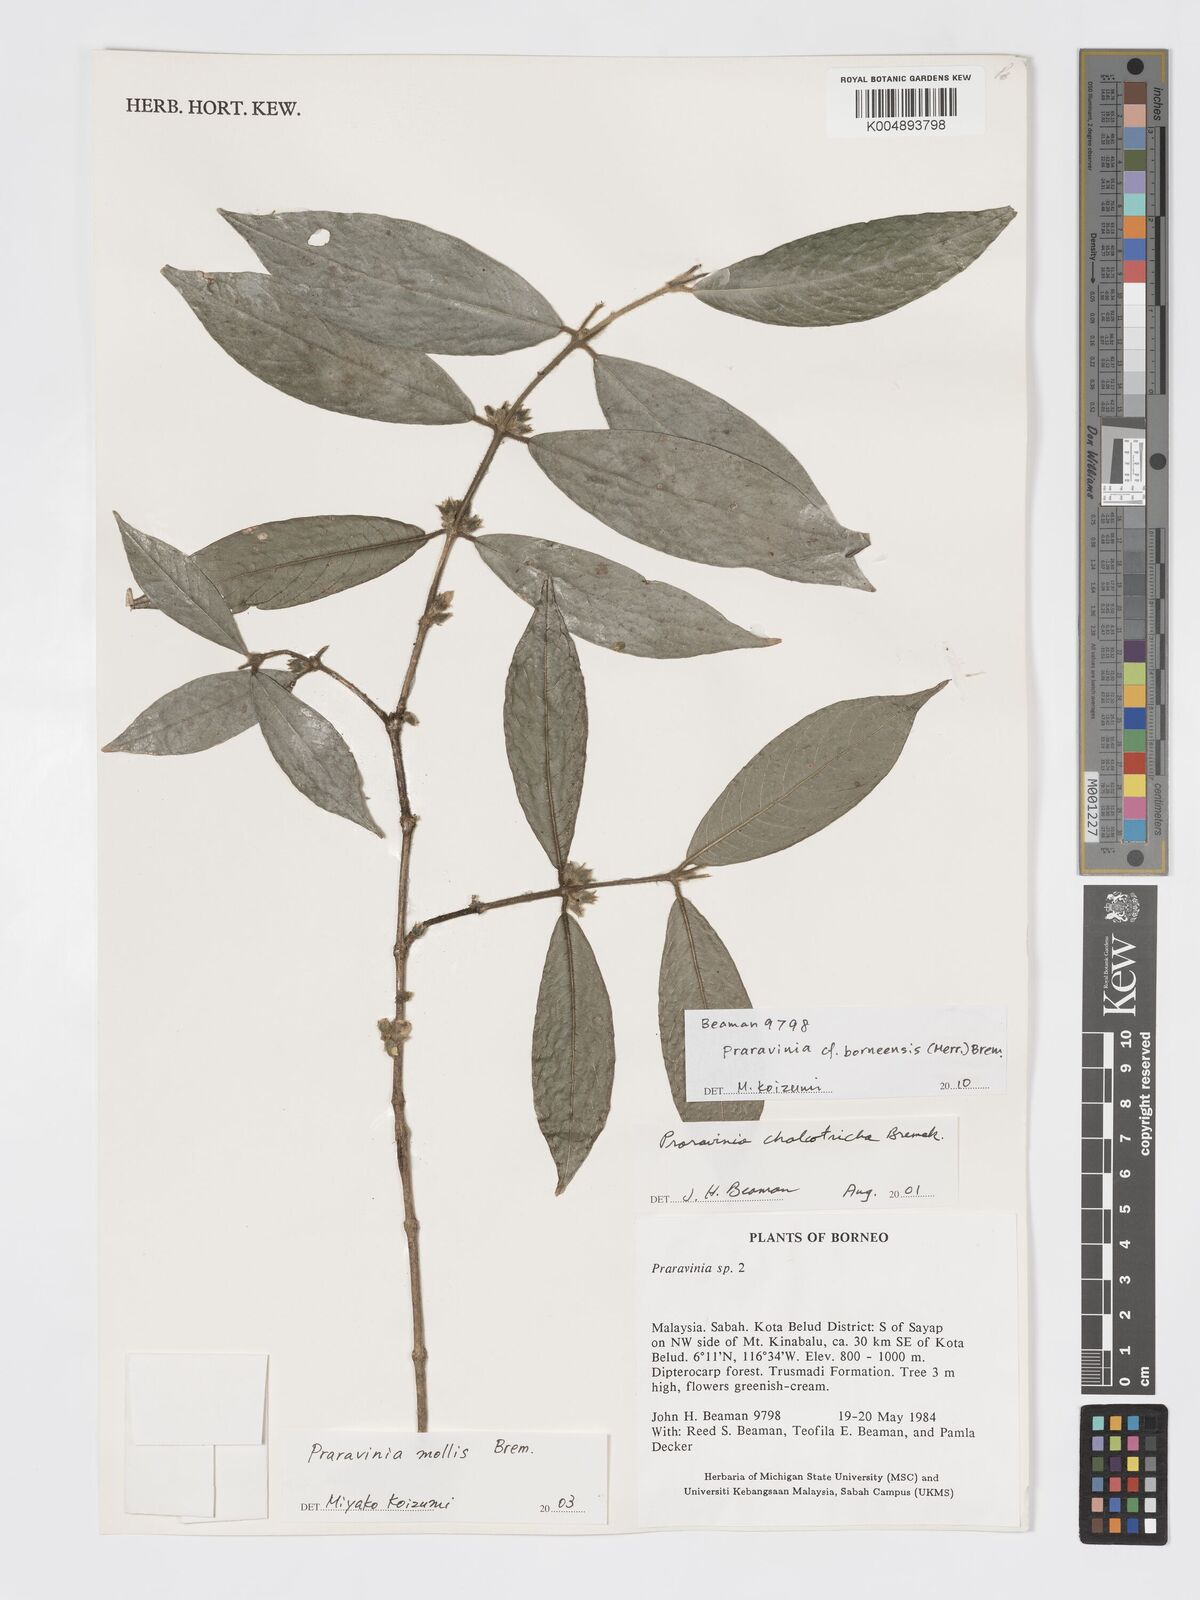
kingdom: Plantae
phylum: Tracheophyta
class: Magnoliopsida
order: Gentianales
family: Rubiaceae
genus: Praravinia
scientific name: Praravinia borneensis
